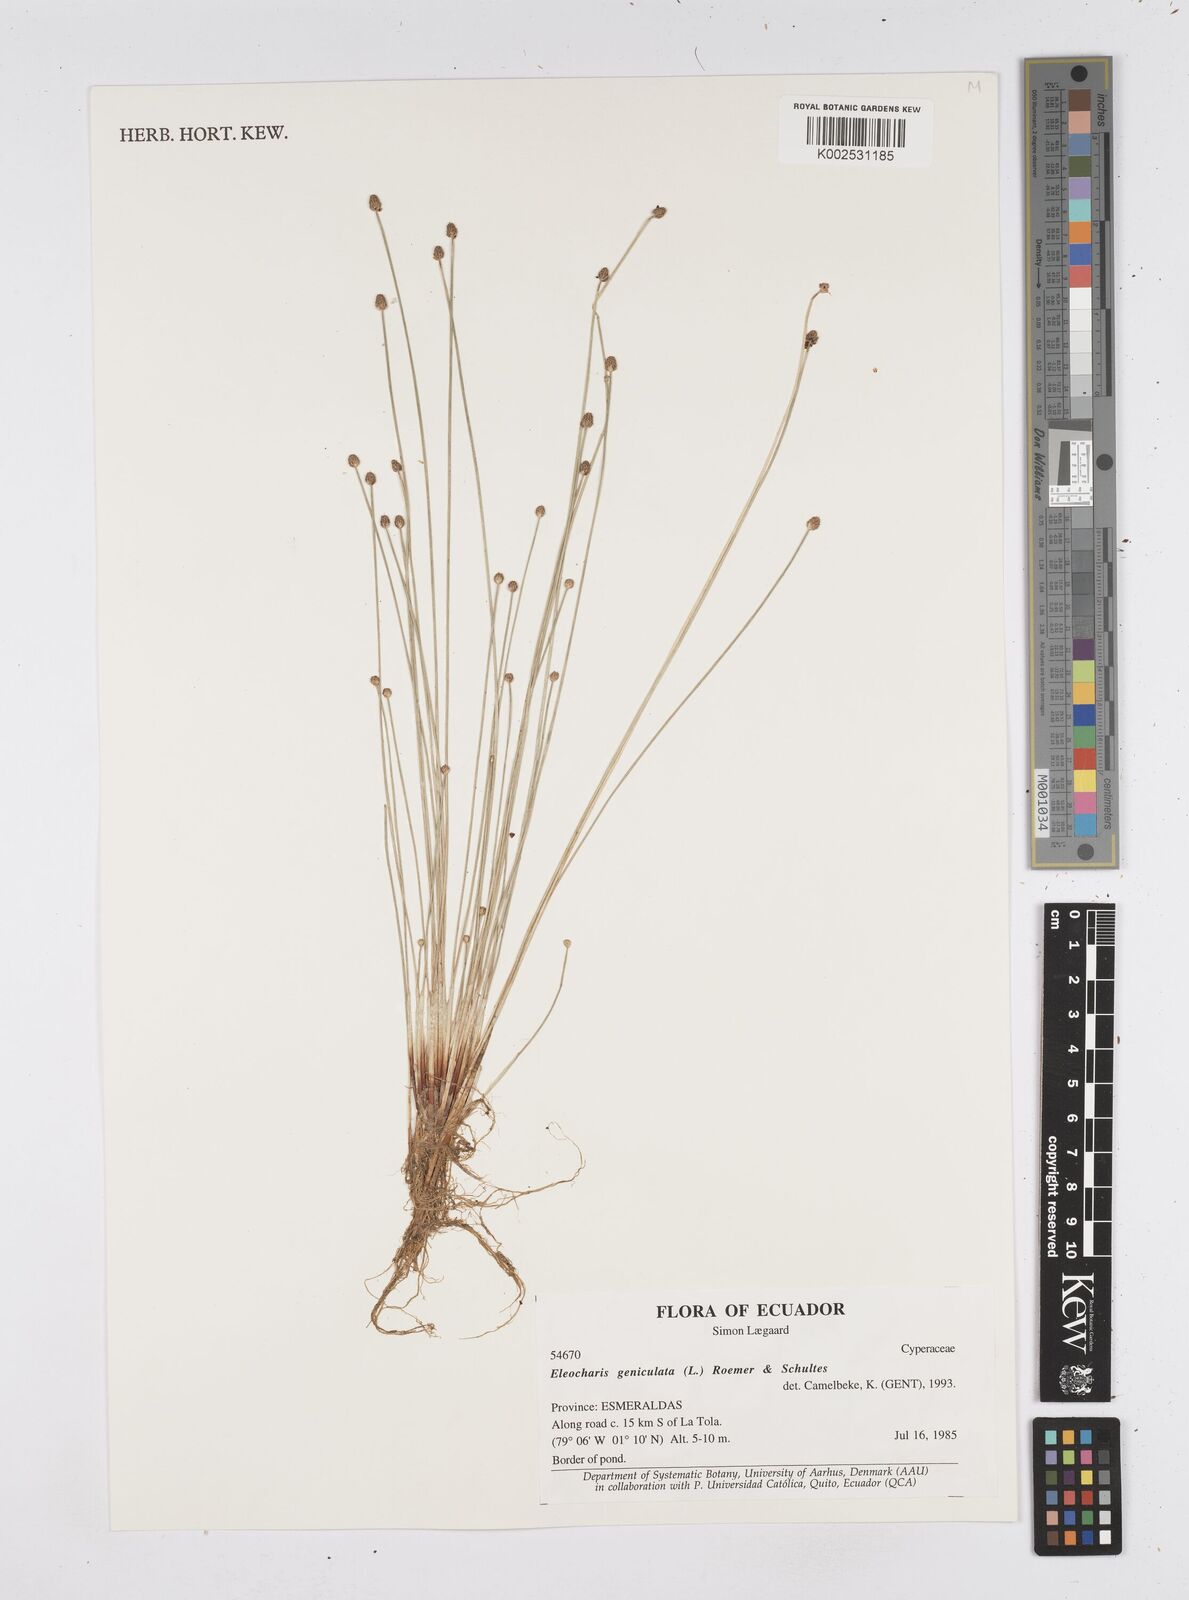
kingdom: Plantae
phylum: Tracheophyta
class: Liliopsida
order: Poales
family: Cyperaceae
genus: Eleocharis
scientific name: Eleocharis geniculata
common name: Canada spikesedge
